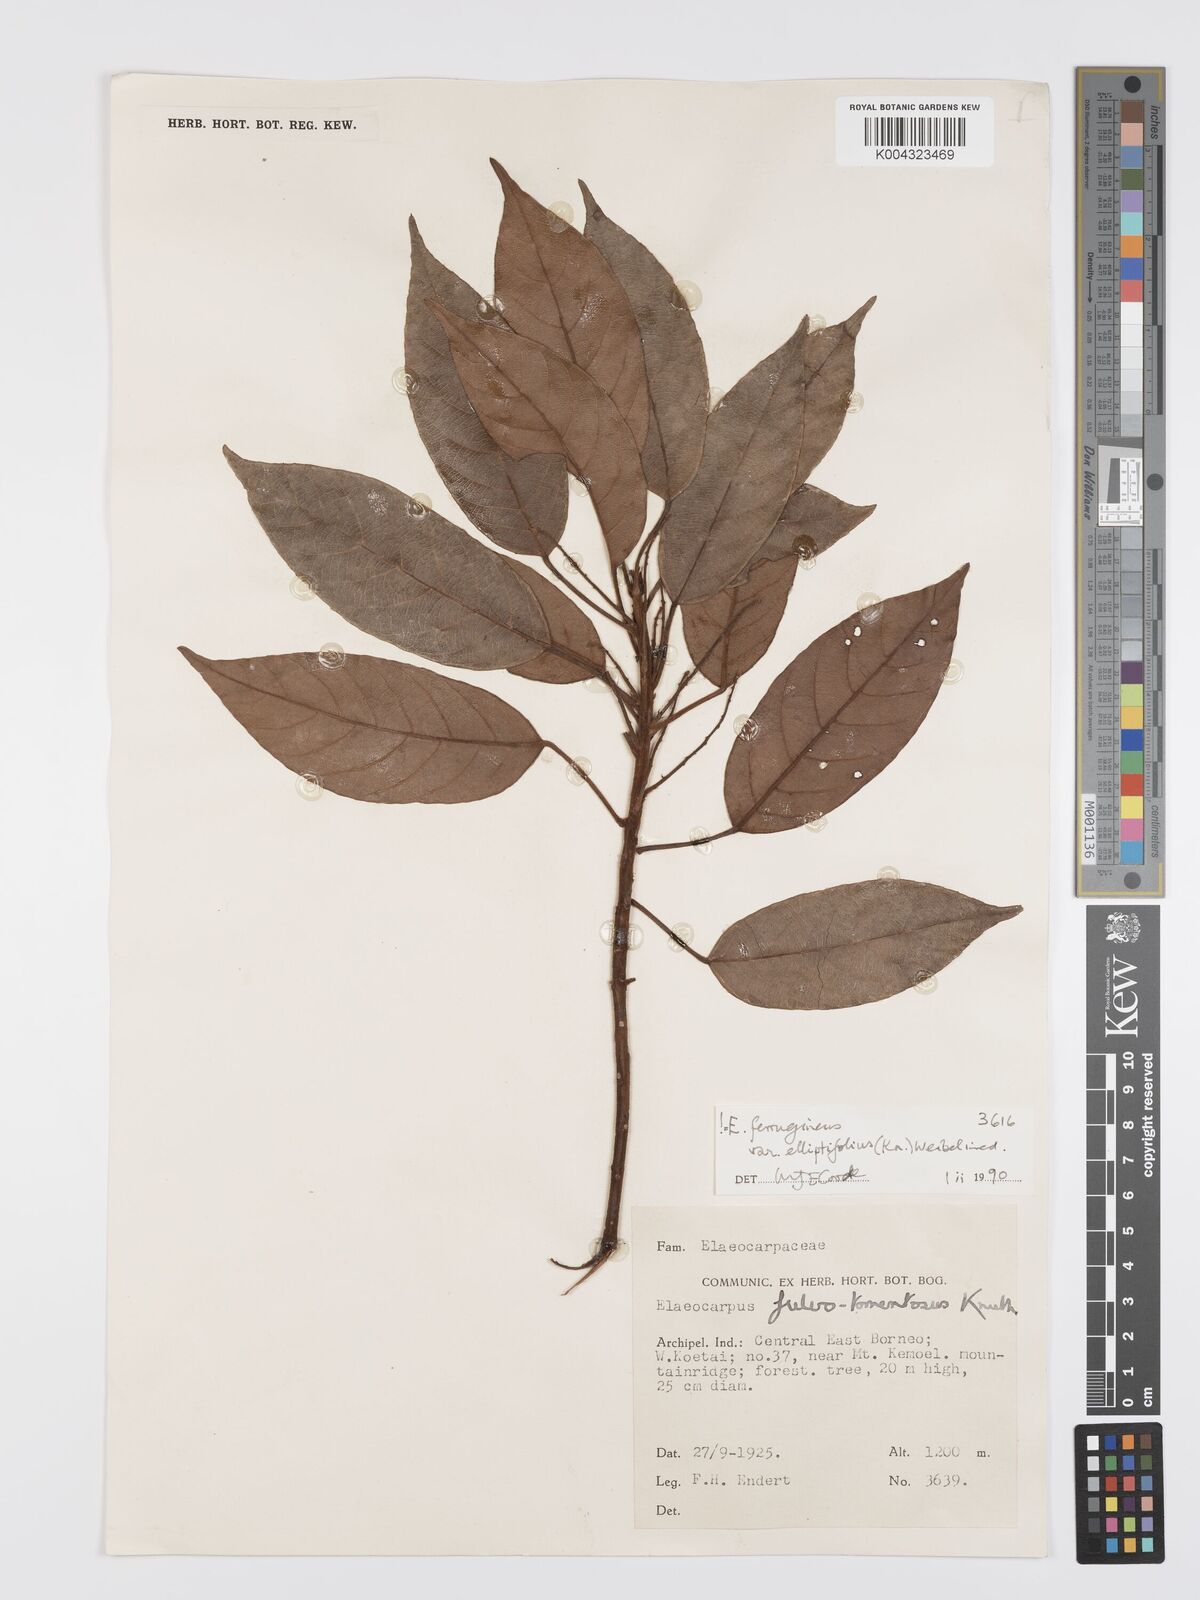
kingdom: Plantae
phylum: Tracheophyta
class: Magnoliopsida
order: Oxalidales
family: Elaeocarpaceae
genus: Elaeocarpus
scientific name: Elaeocarpus ferrugineus
